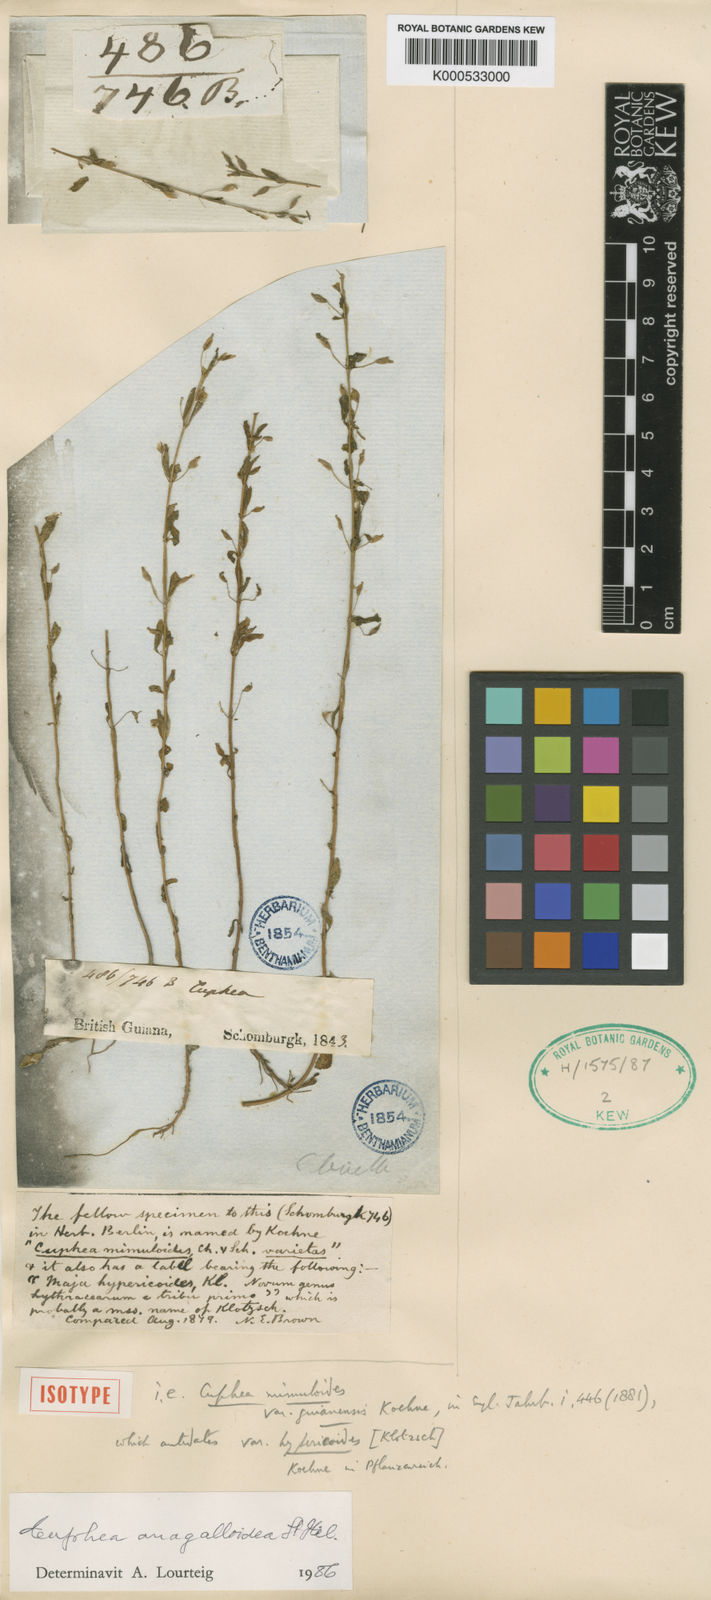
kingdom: Plantae
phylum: Tracheophyta
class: Magnoliopsida
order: Myrtales
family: Lythraceae
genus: Cuphea
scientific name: Cuphea anagalloidea
